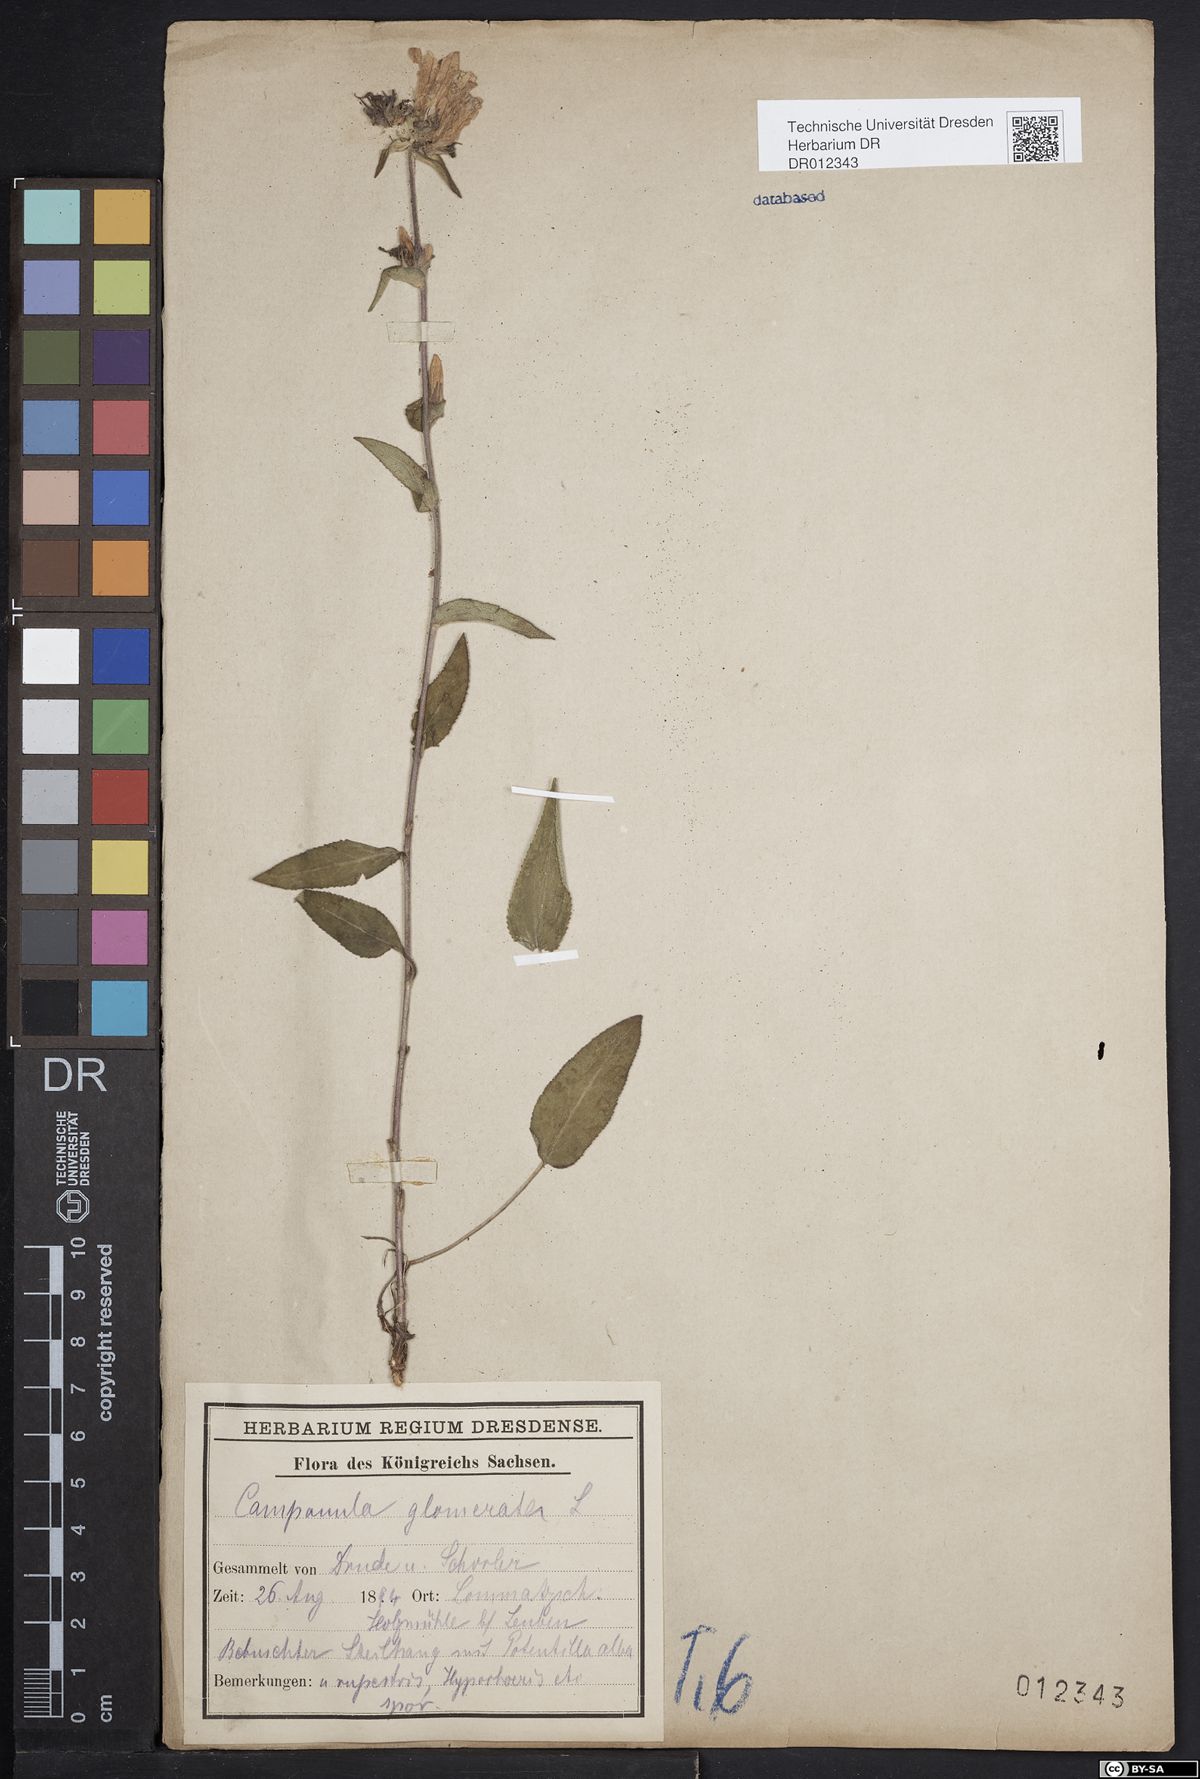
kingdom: Plantae
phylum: Tracheophyta
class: Magnoliopsida
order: Asterales
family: Campanulaceae
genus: Campanula
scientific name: Campanula glomerata
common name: Clustered bellflower
